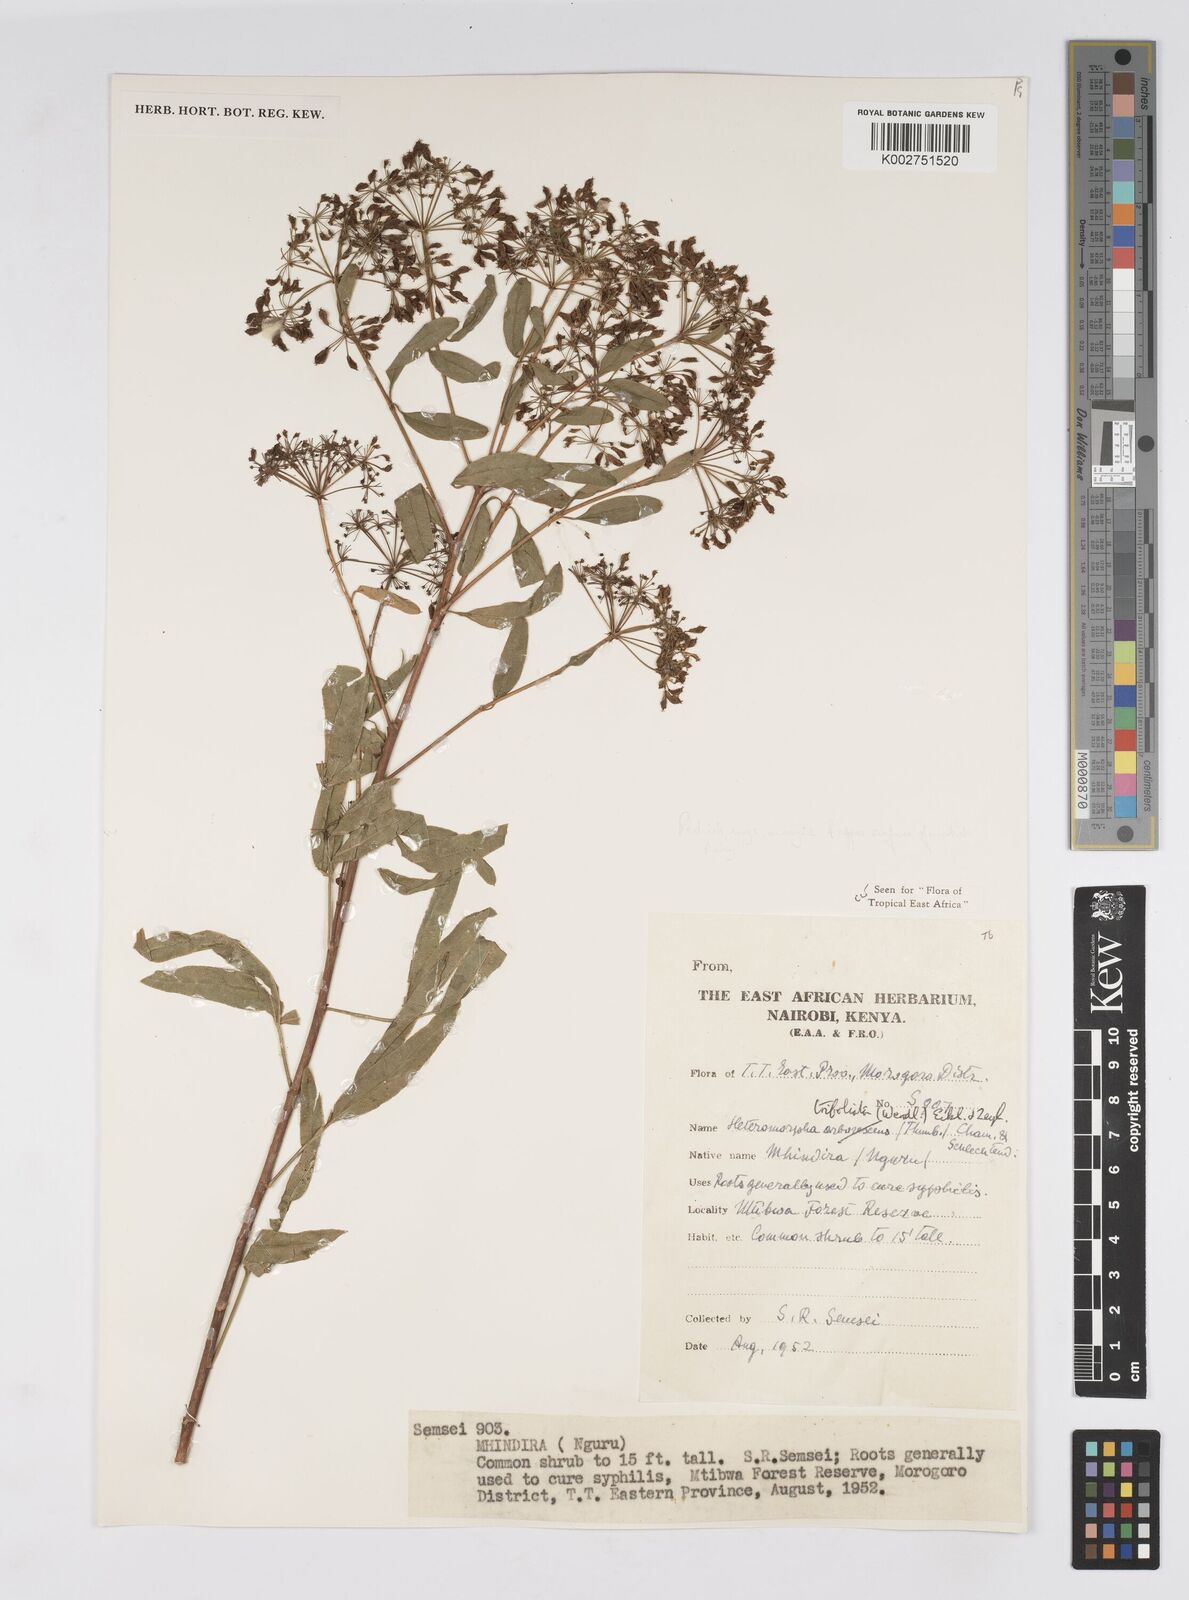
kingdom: Plantae
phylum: Tracheophyta
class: Magnoliopsida
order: Apiales
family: Apiaceae
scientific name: Apiaceae
